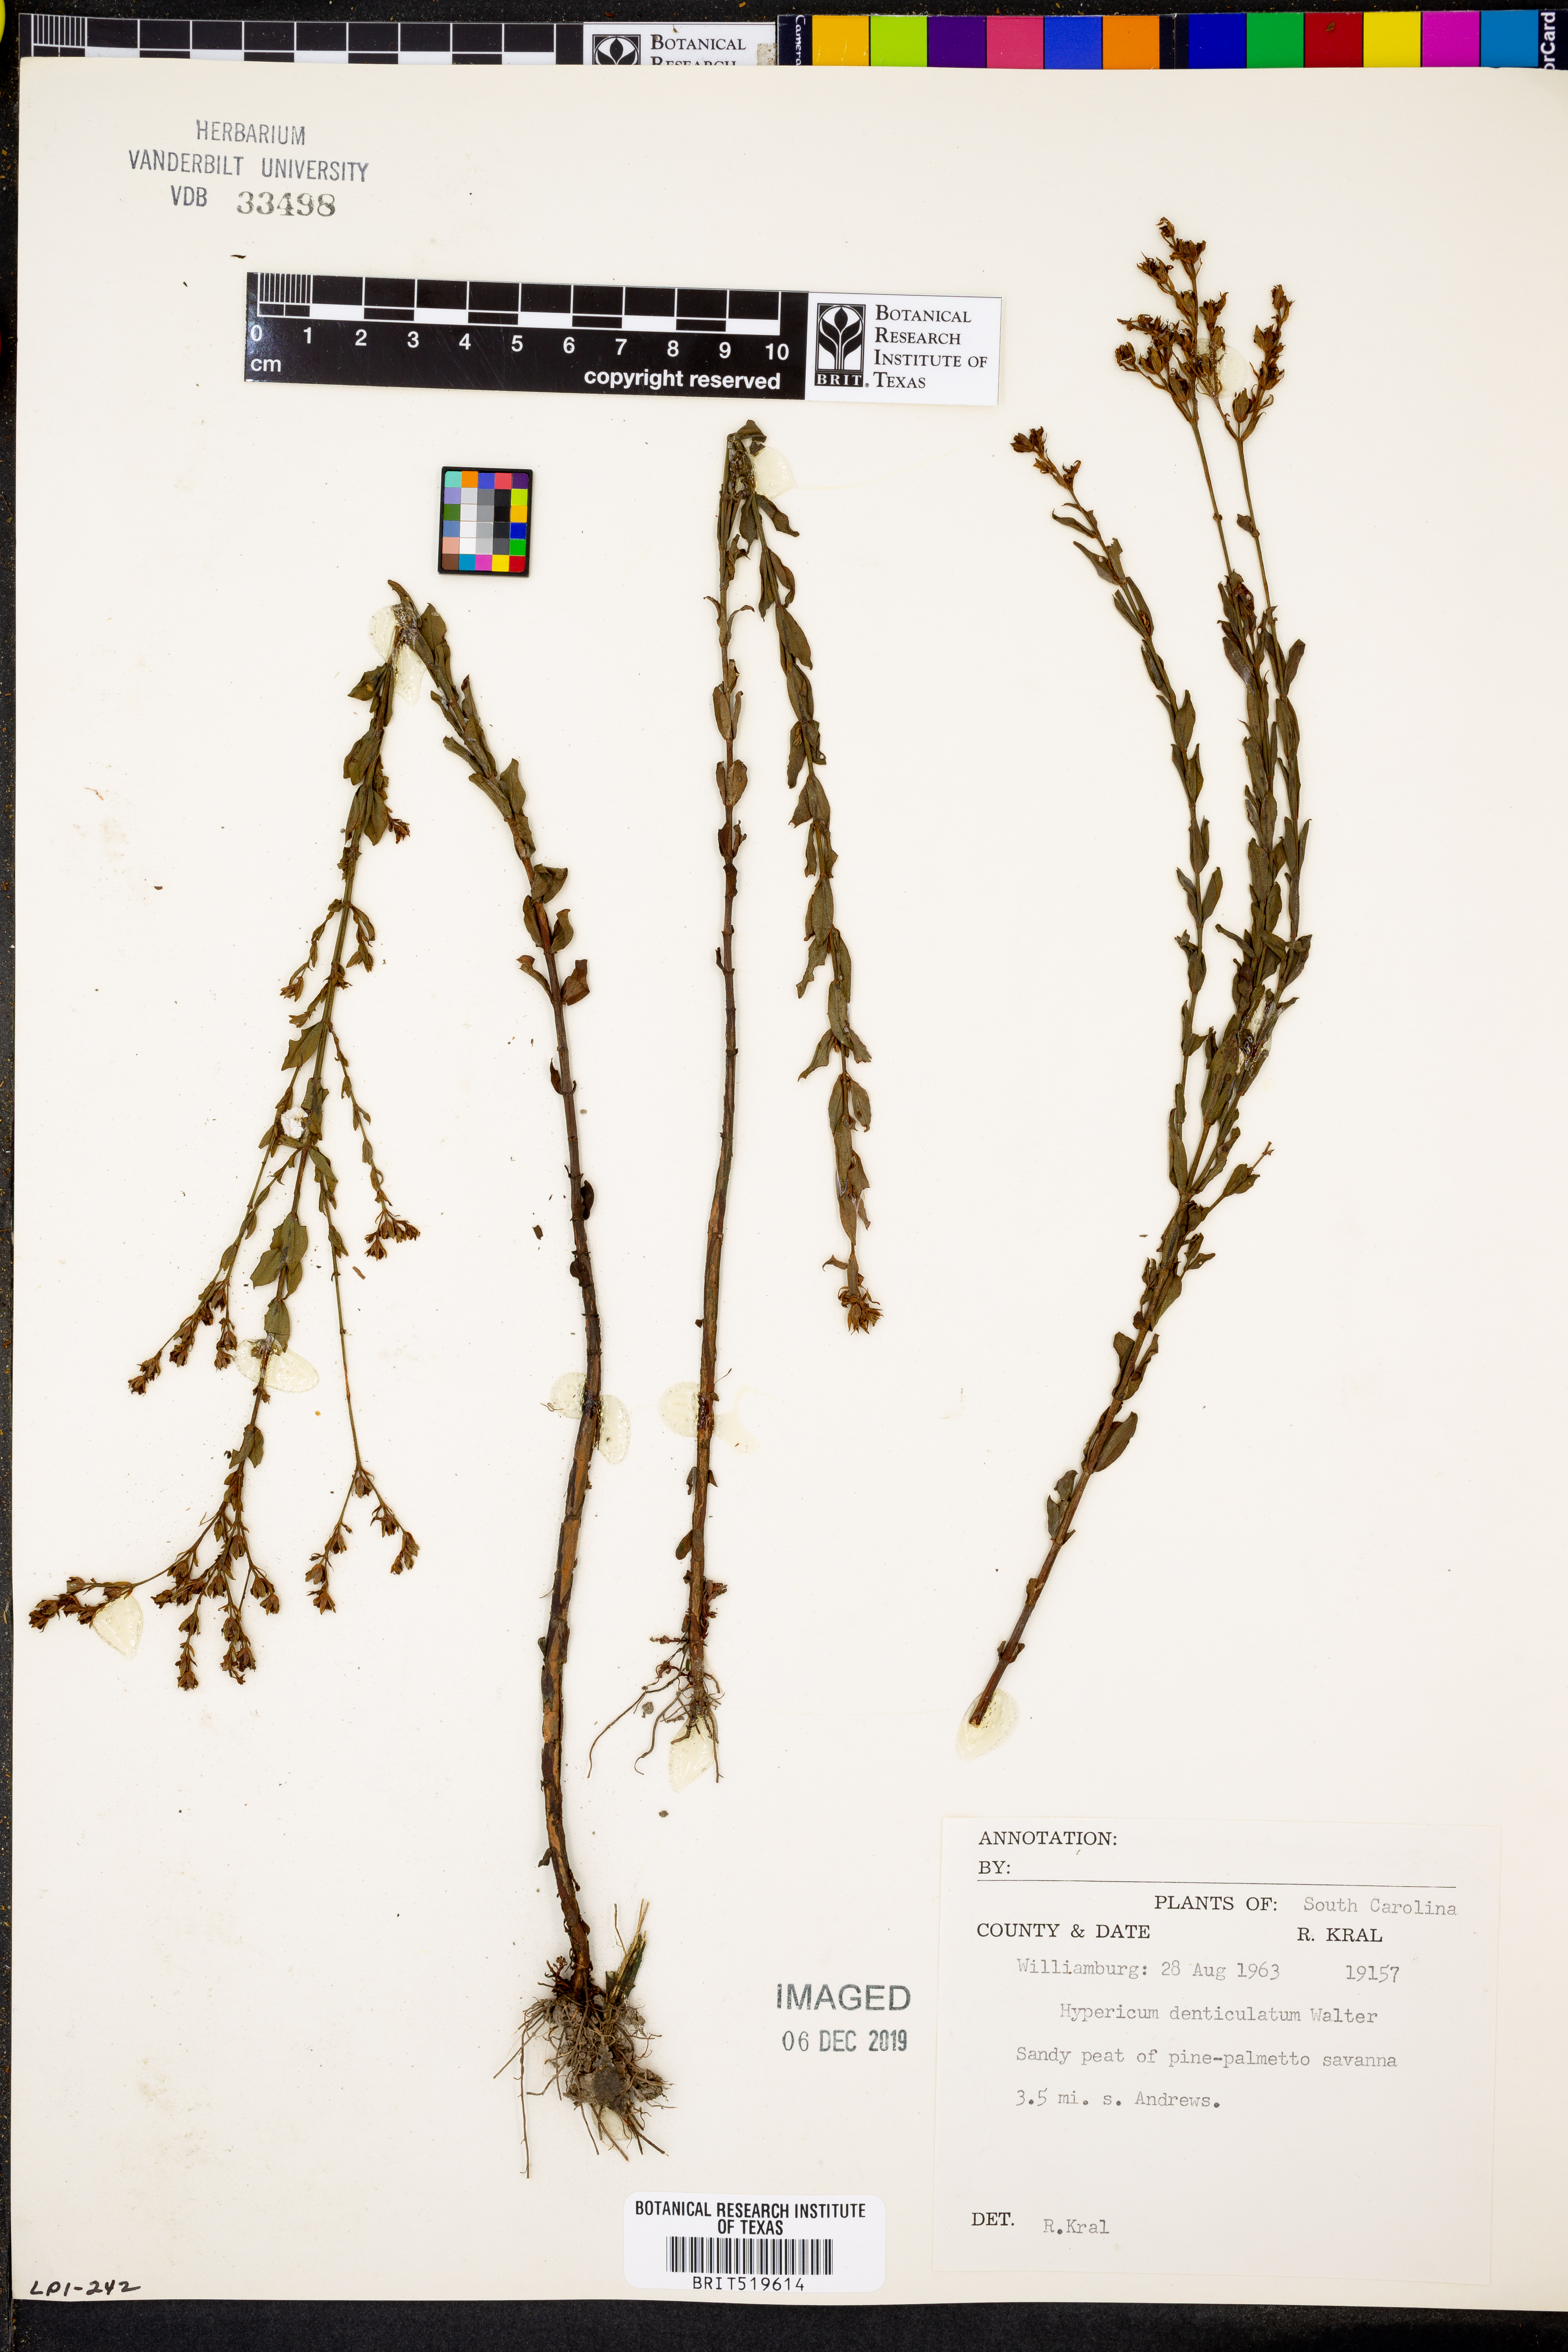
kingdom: Plantae
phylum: Tracheophyta
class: Magnoliopsida
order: Malpighiales
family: Hypericaceae
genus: Hypericum
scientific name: Hypericum denticulatum
